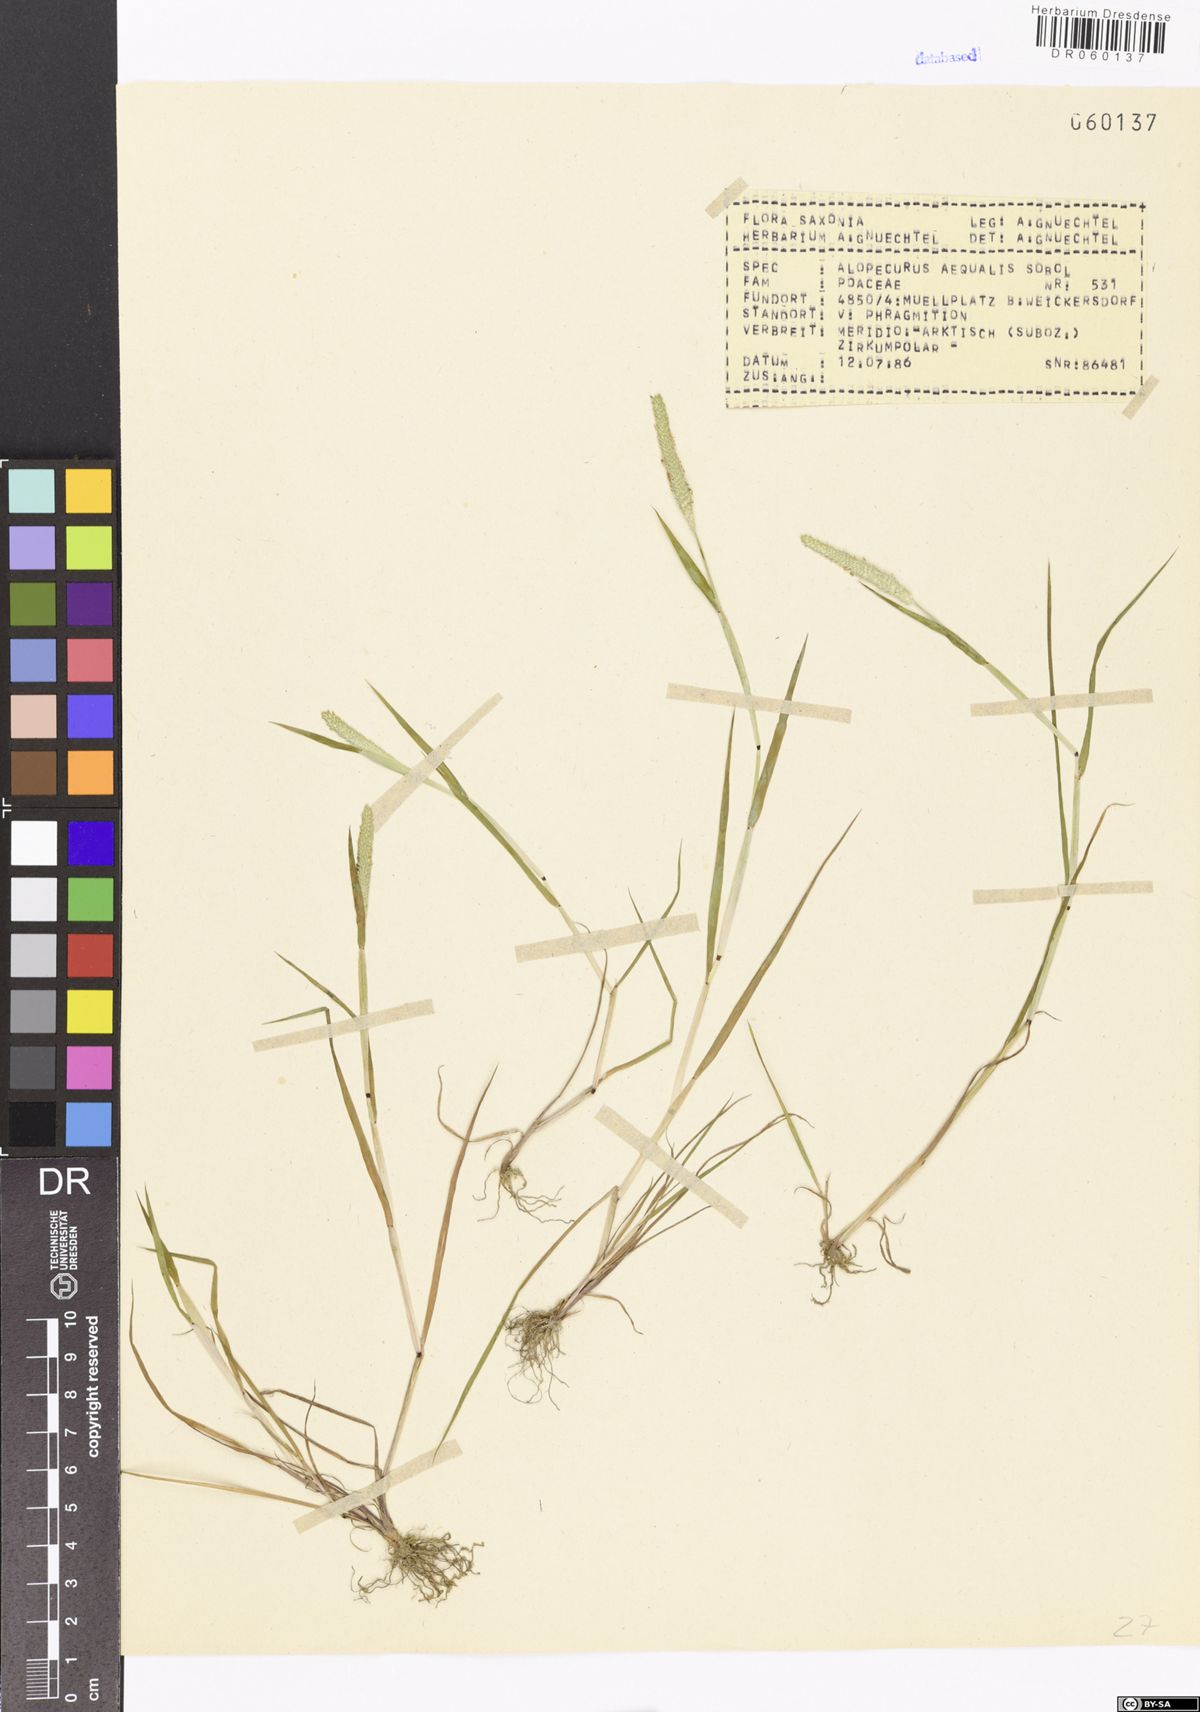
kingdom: Plantae
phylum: Tracheophyta
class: Liliopsida
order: Poales
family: Poaceae
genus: Alopecurus
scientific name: Alopecurus aequalis
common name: Orange foxtail
